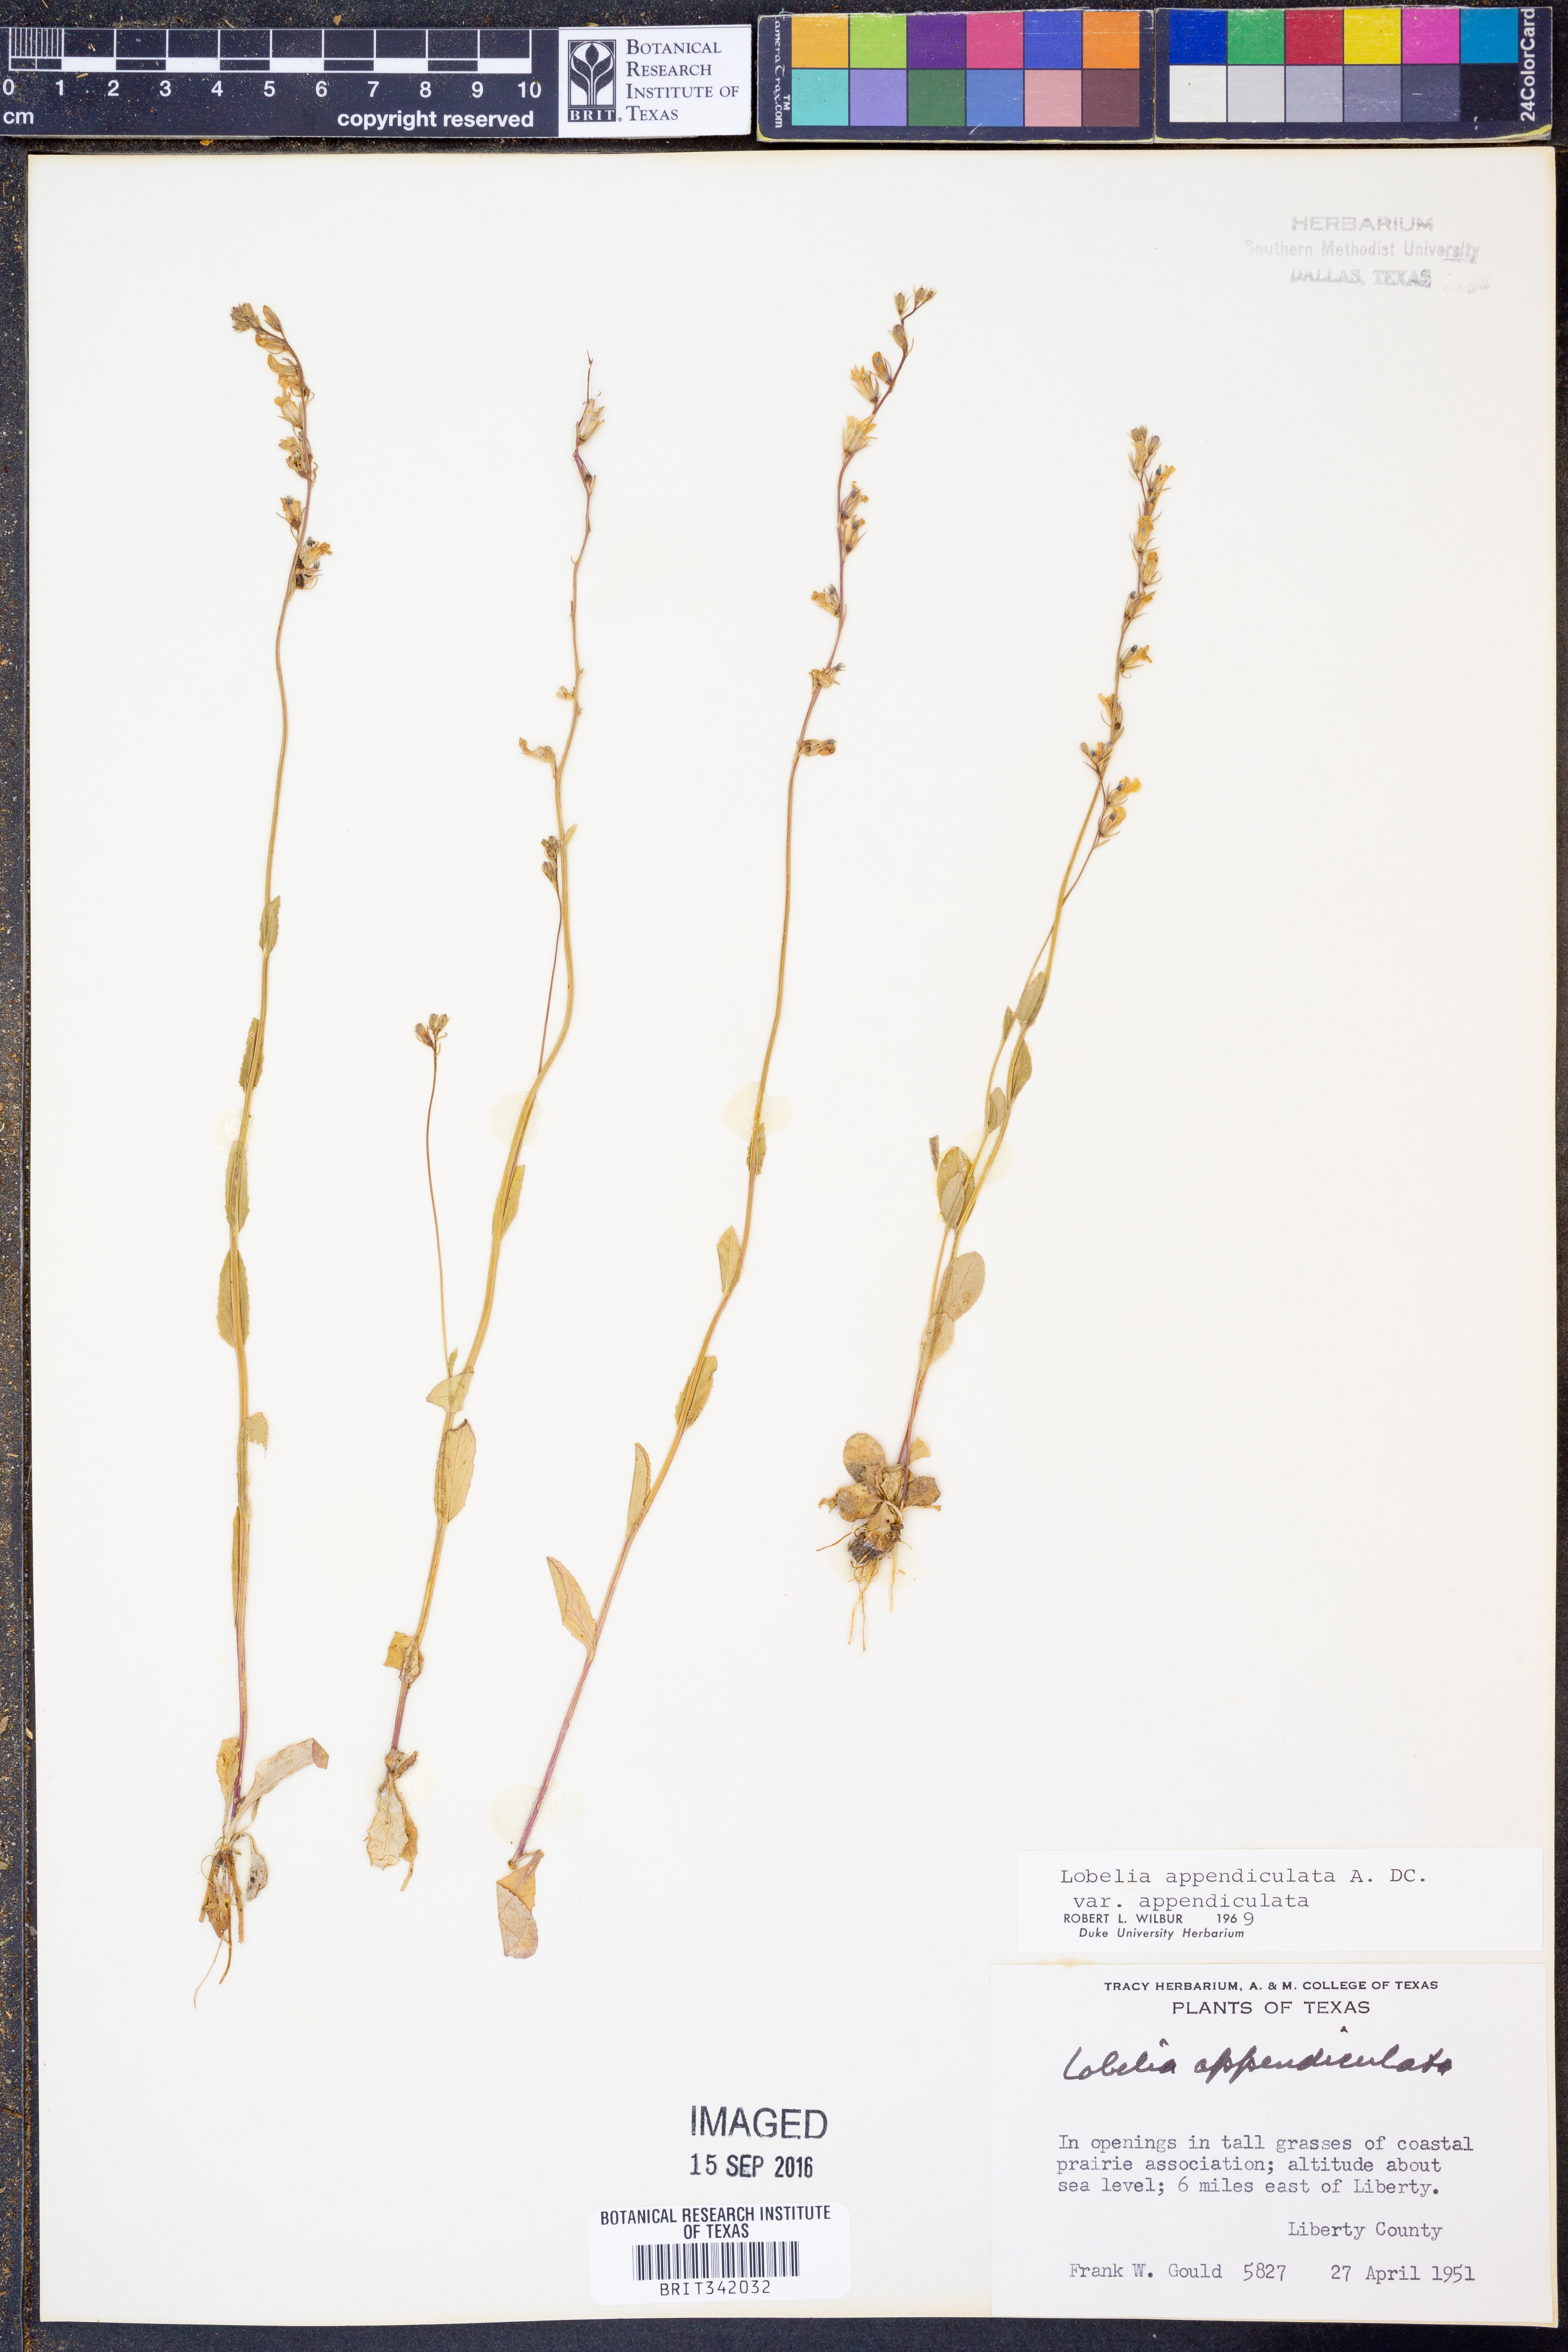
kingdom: Plantae
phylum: Tracheophyta
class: Magnoliopsida
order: Asterales
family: Campanulaceae
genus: Lobelia
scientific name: Lobelia appendiculata
